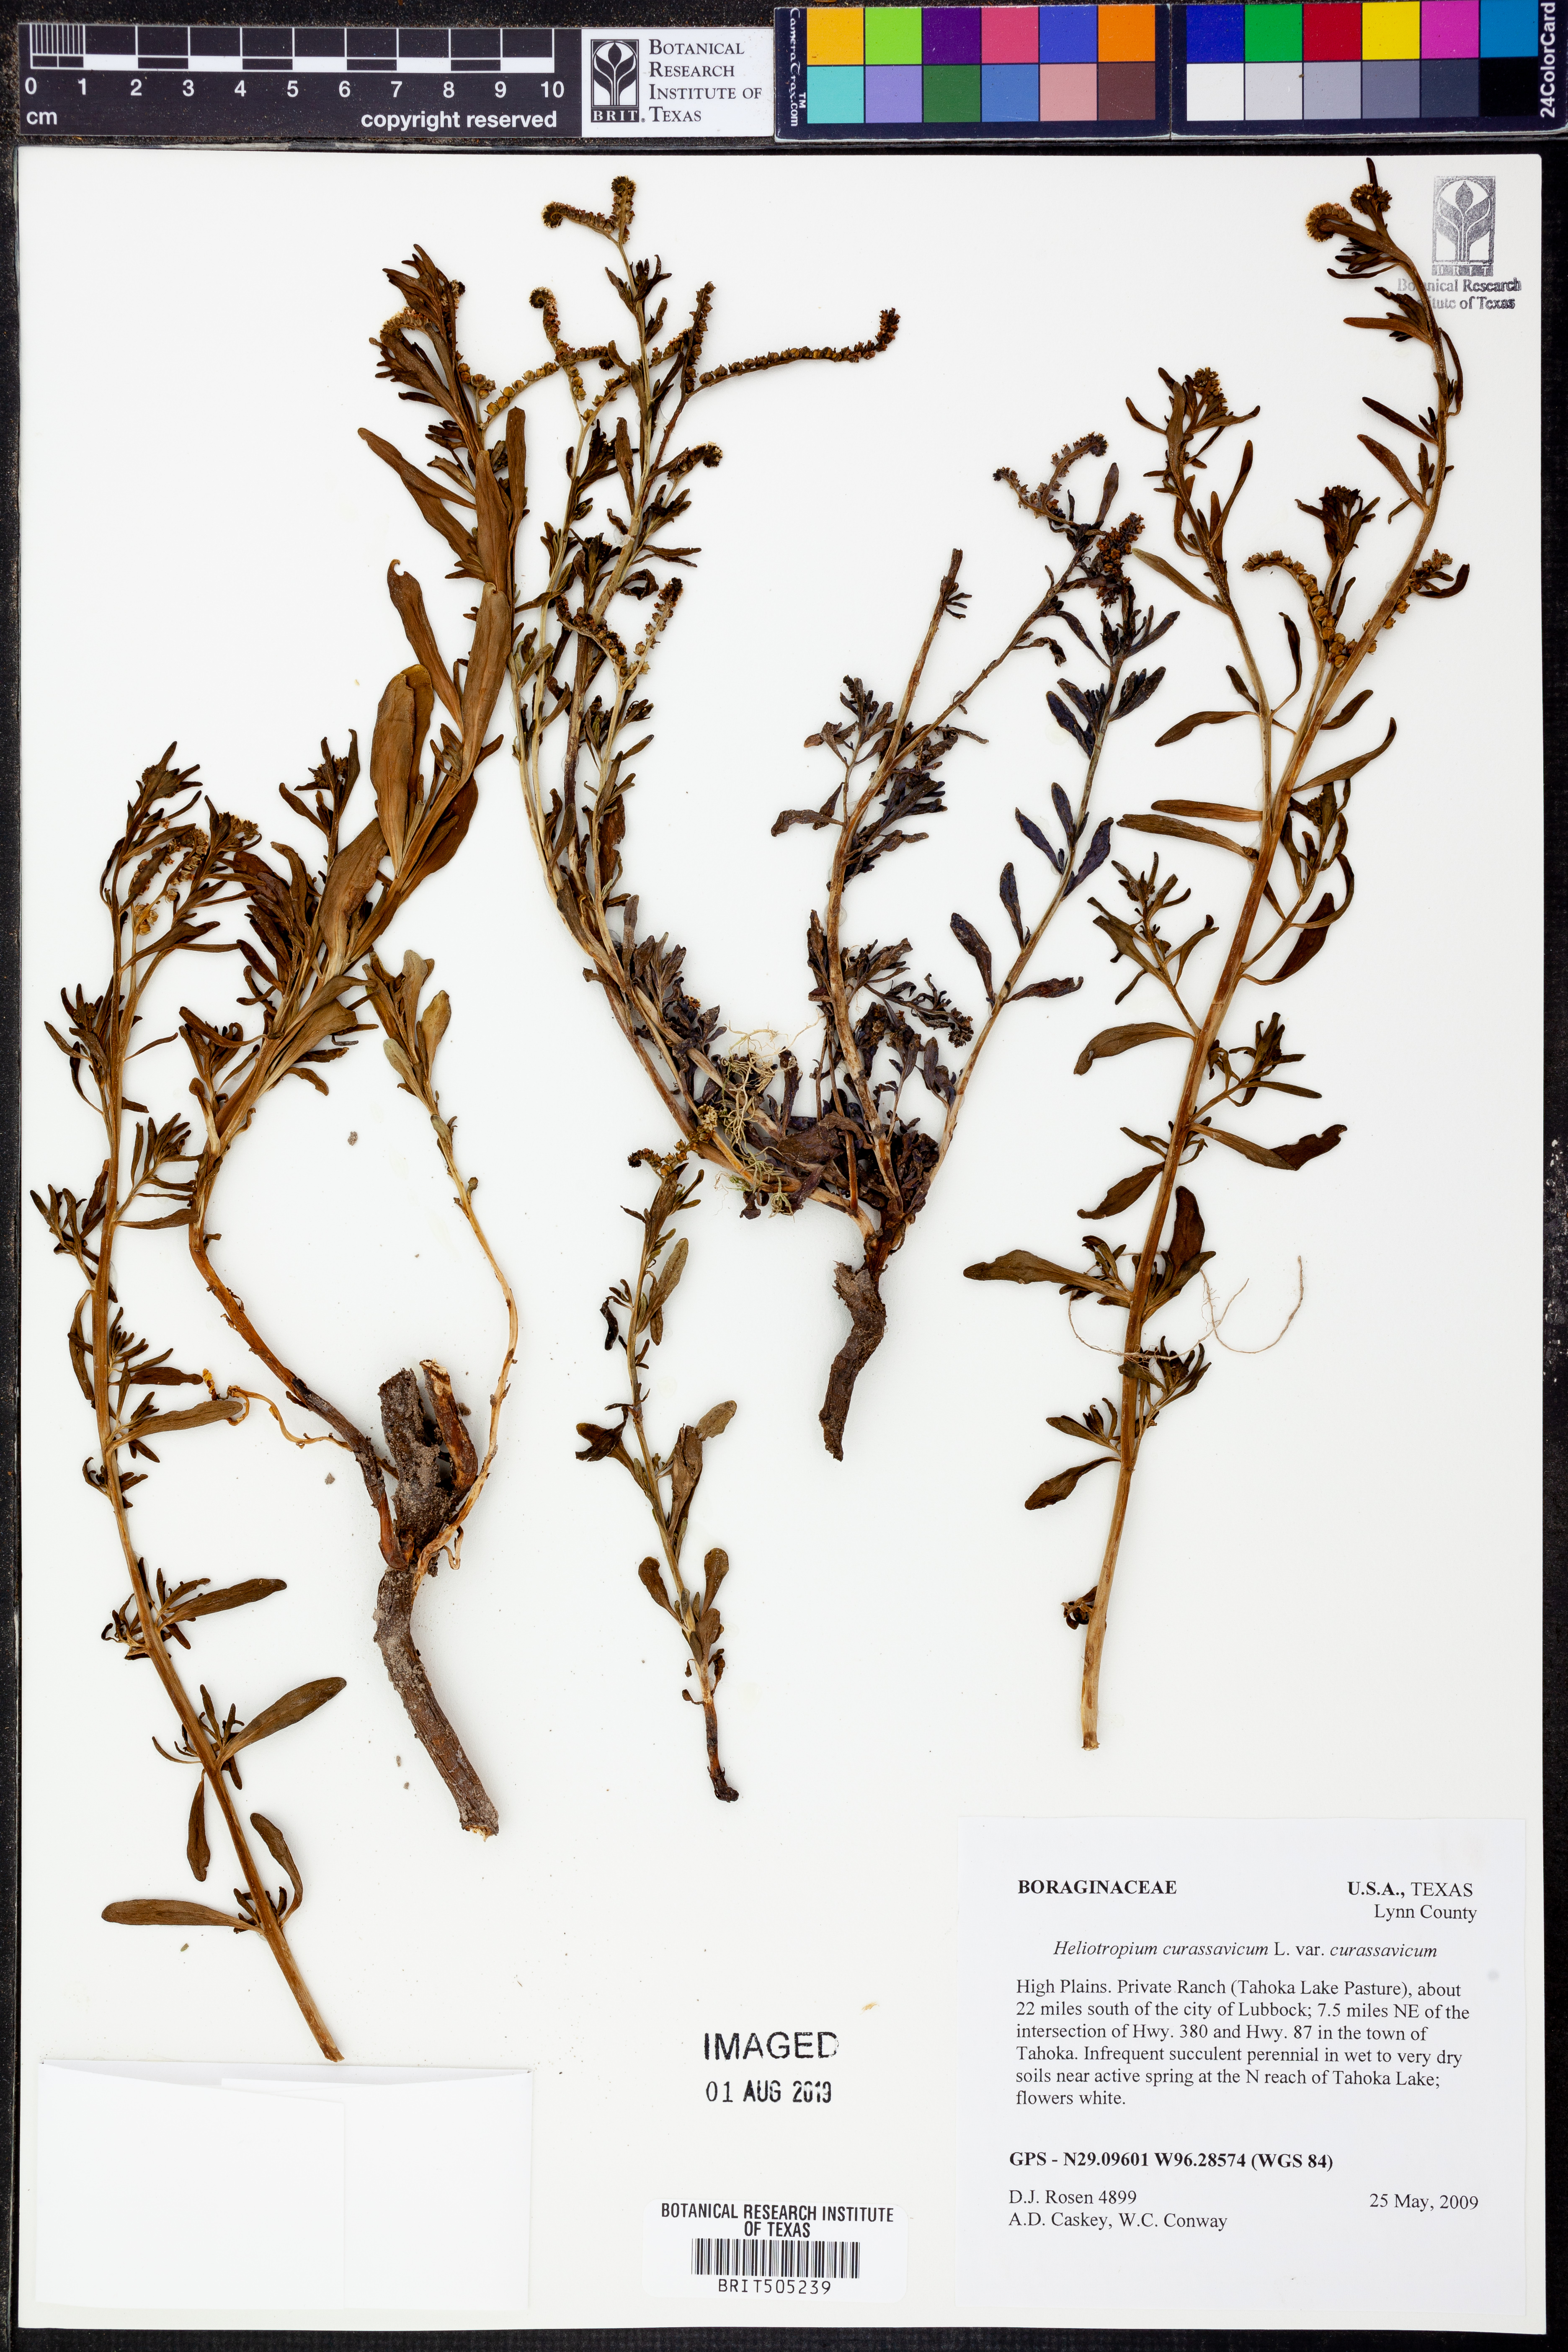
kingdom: Plantae
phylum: Tracheophyta
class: Magnoliopsida
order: Boraginales
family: Heliotropiaceae
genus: Heliotropium
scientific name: Heliotropium curassavicum
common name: Seaside heliotrope
